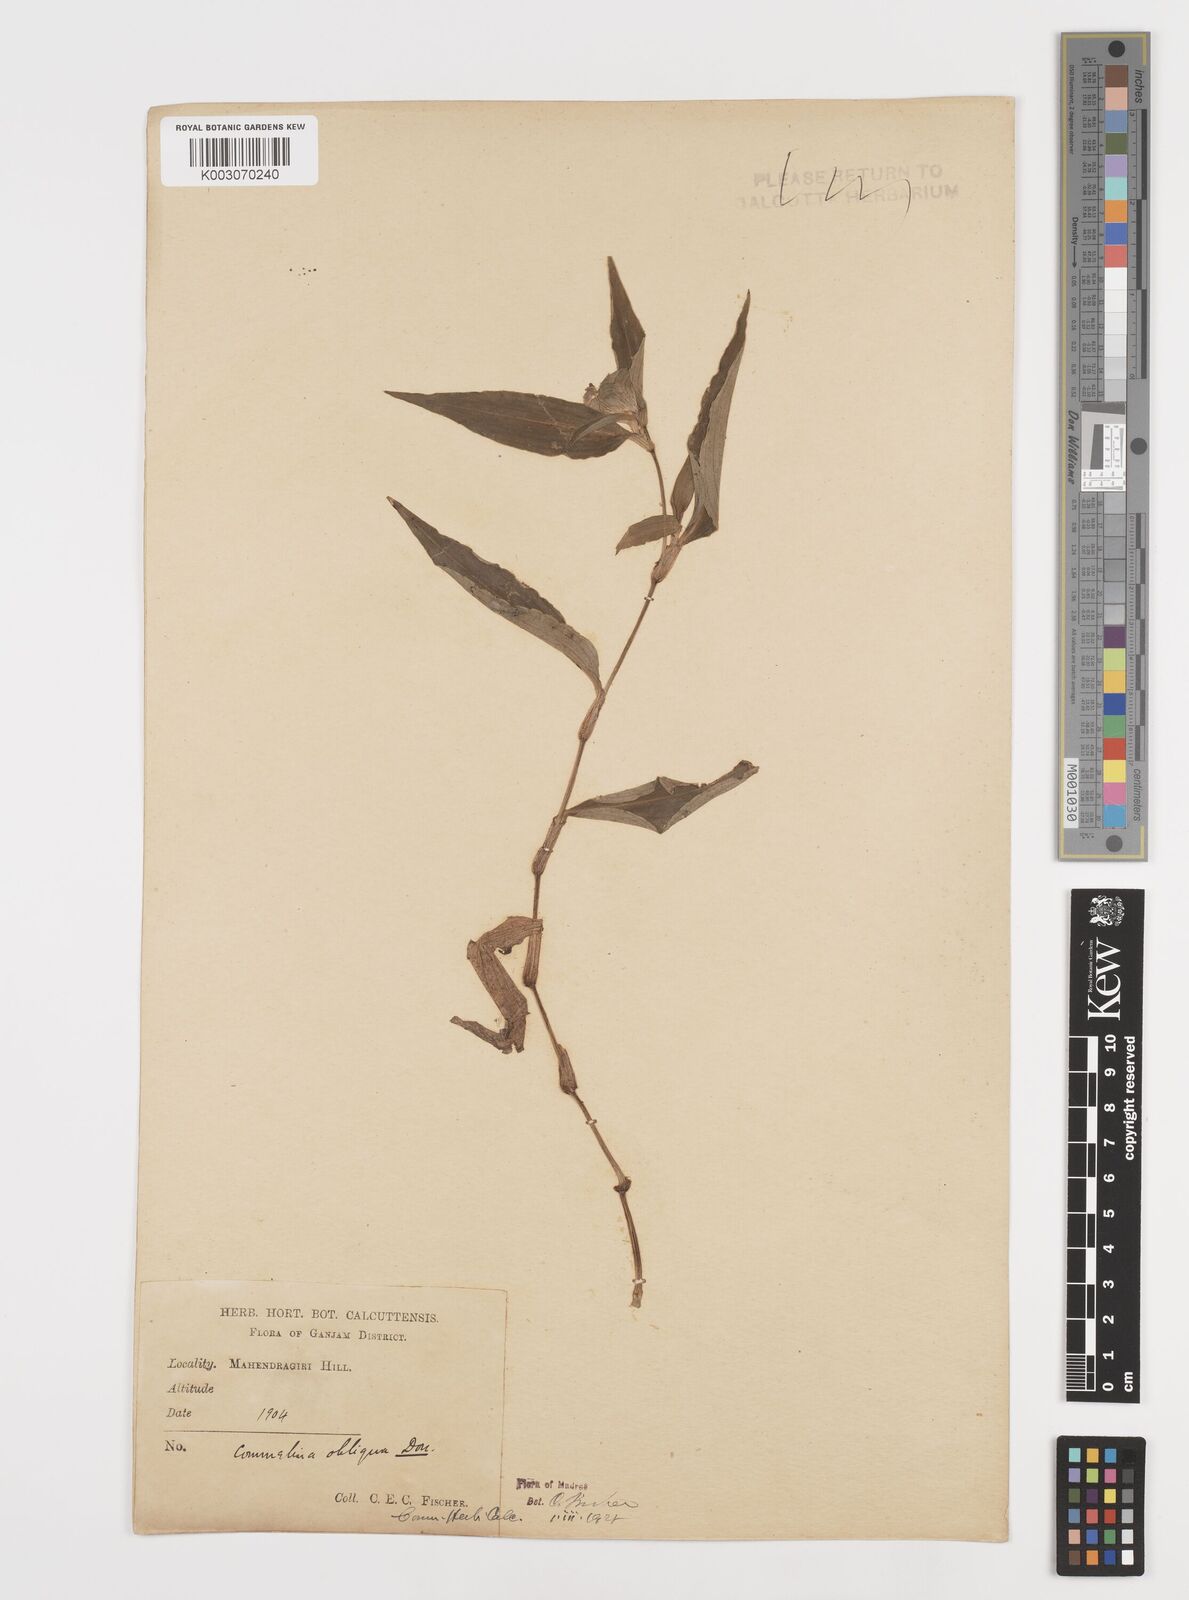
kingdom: Plantae
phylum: Tracheophyta
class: Liliopsida
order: Commelinales
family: Commelinaceae
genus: Commelina
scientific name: Commelina paludosa
